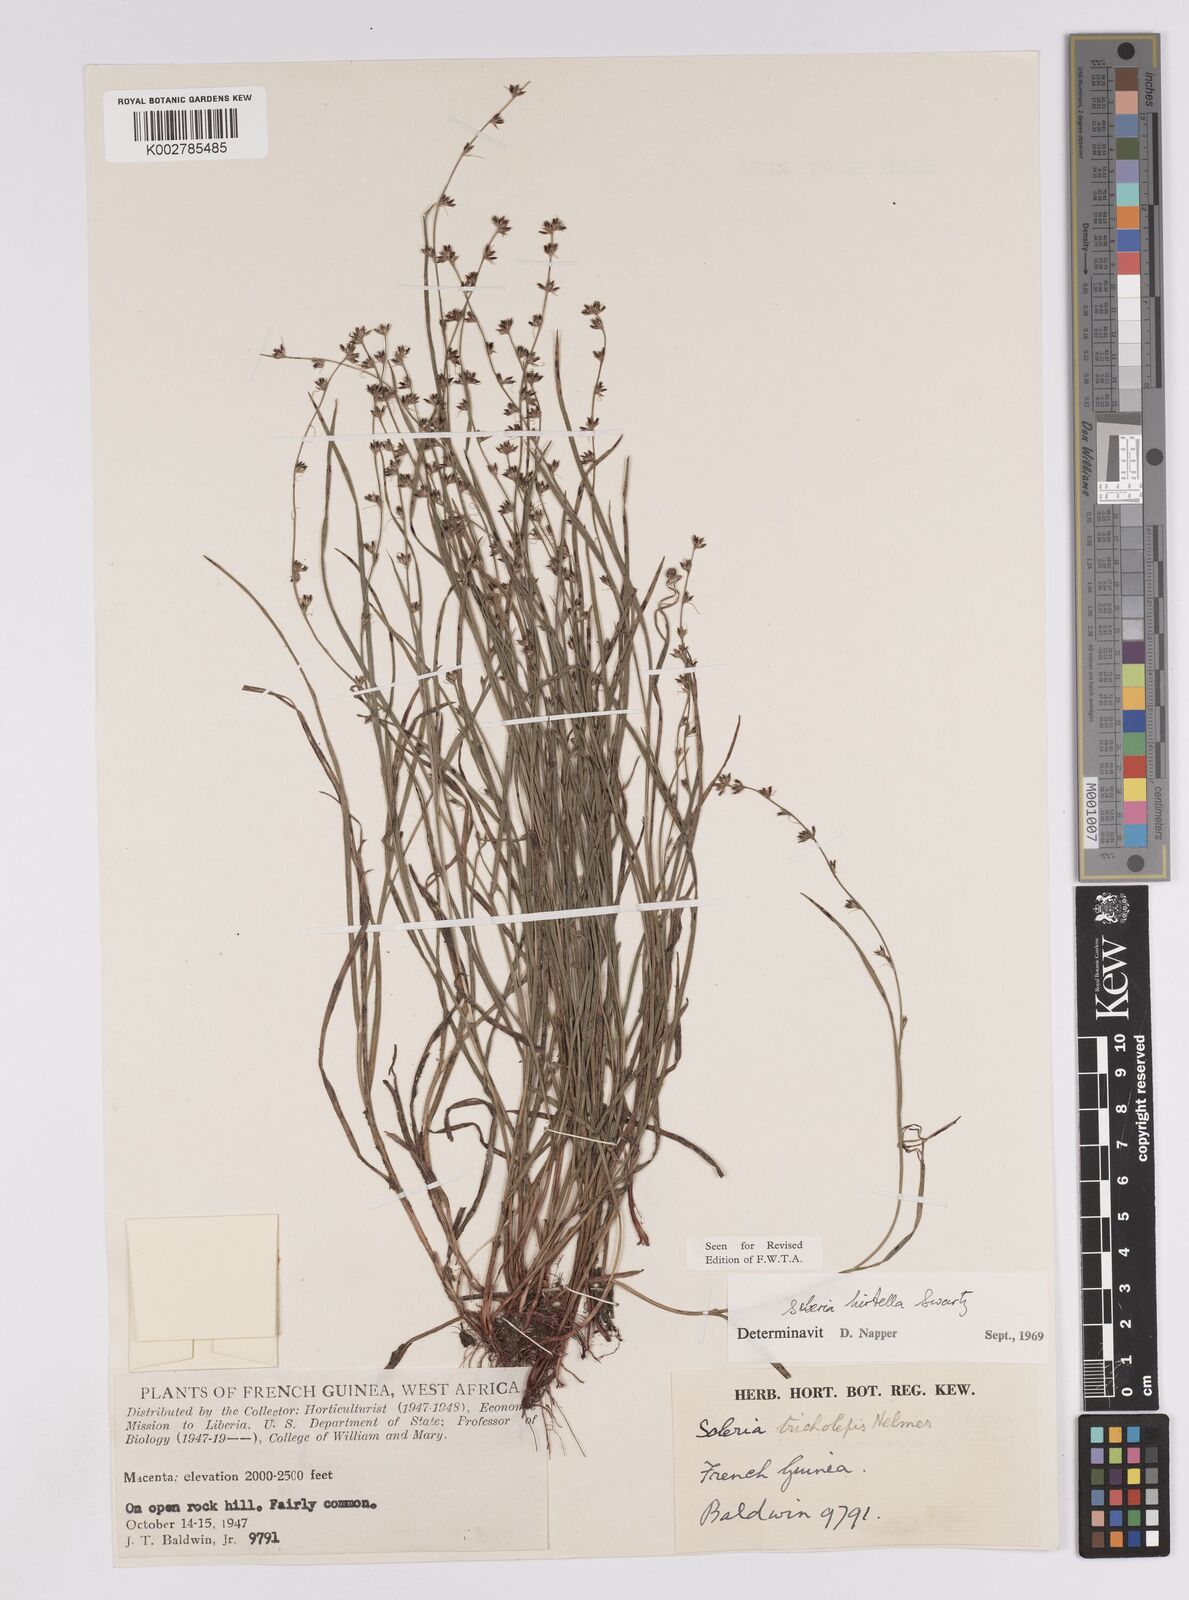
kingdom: Plantae
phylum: Tracheophyta
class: Liliopsida
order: Poales
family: Cyperaceae
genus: Scleria
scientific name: Scleria tricholepis
